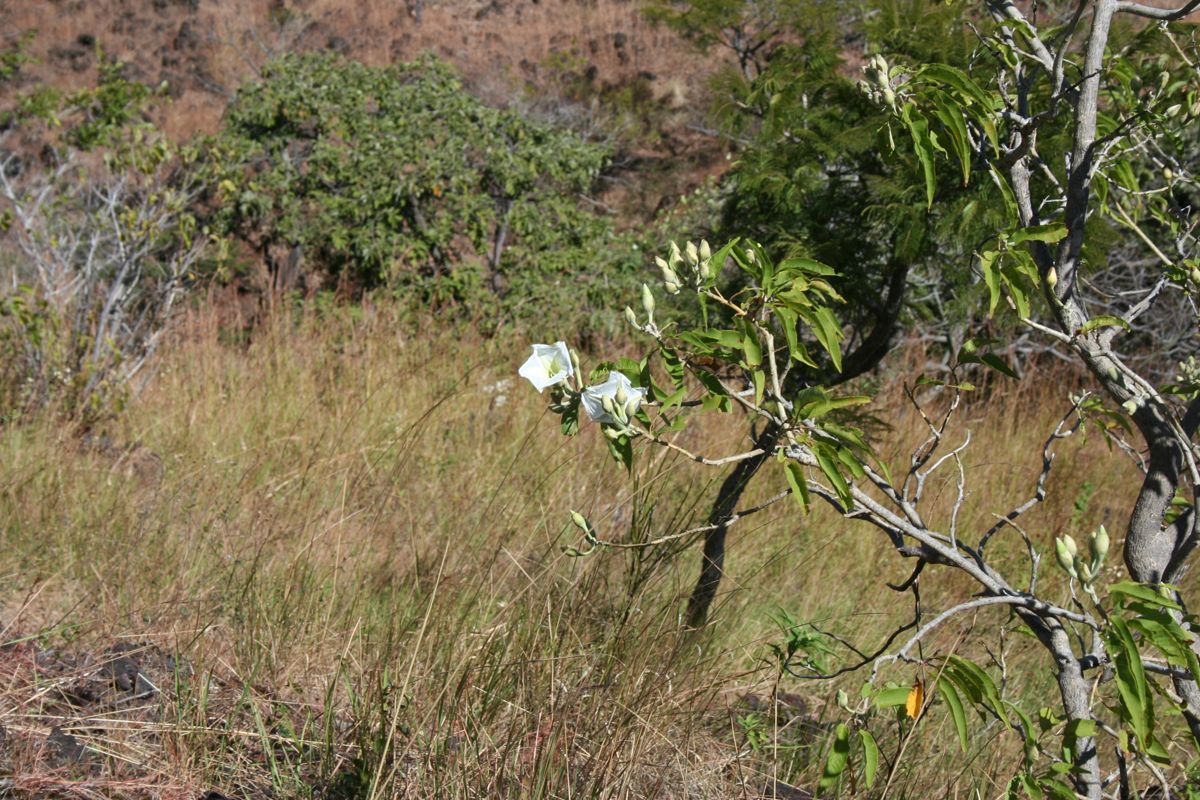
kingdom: Plantae
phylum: Tracheophyta
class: Magnoliopsida
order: Solanales
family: Convolvulaceae
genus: Ipomoea
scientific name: Ipomoea wolcottiana
